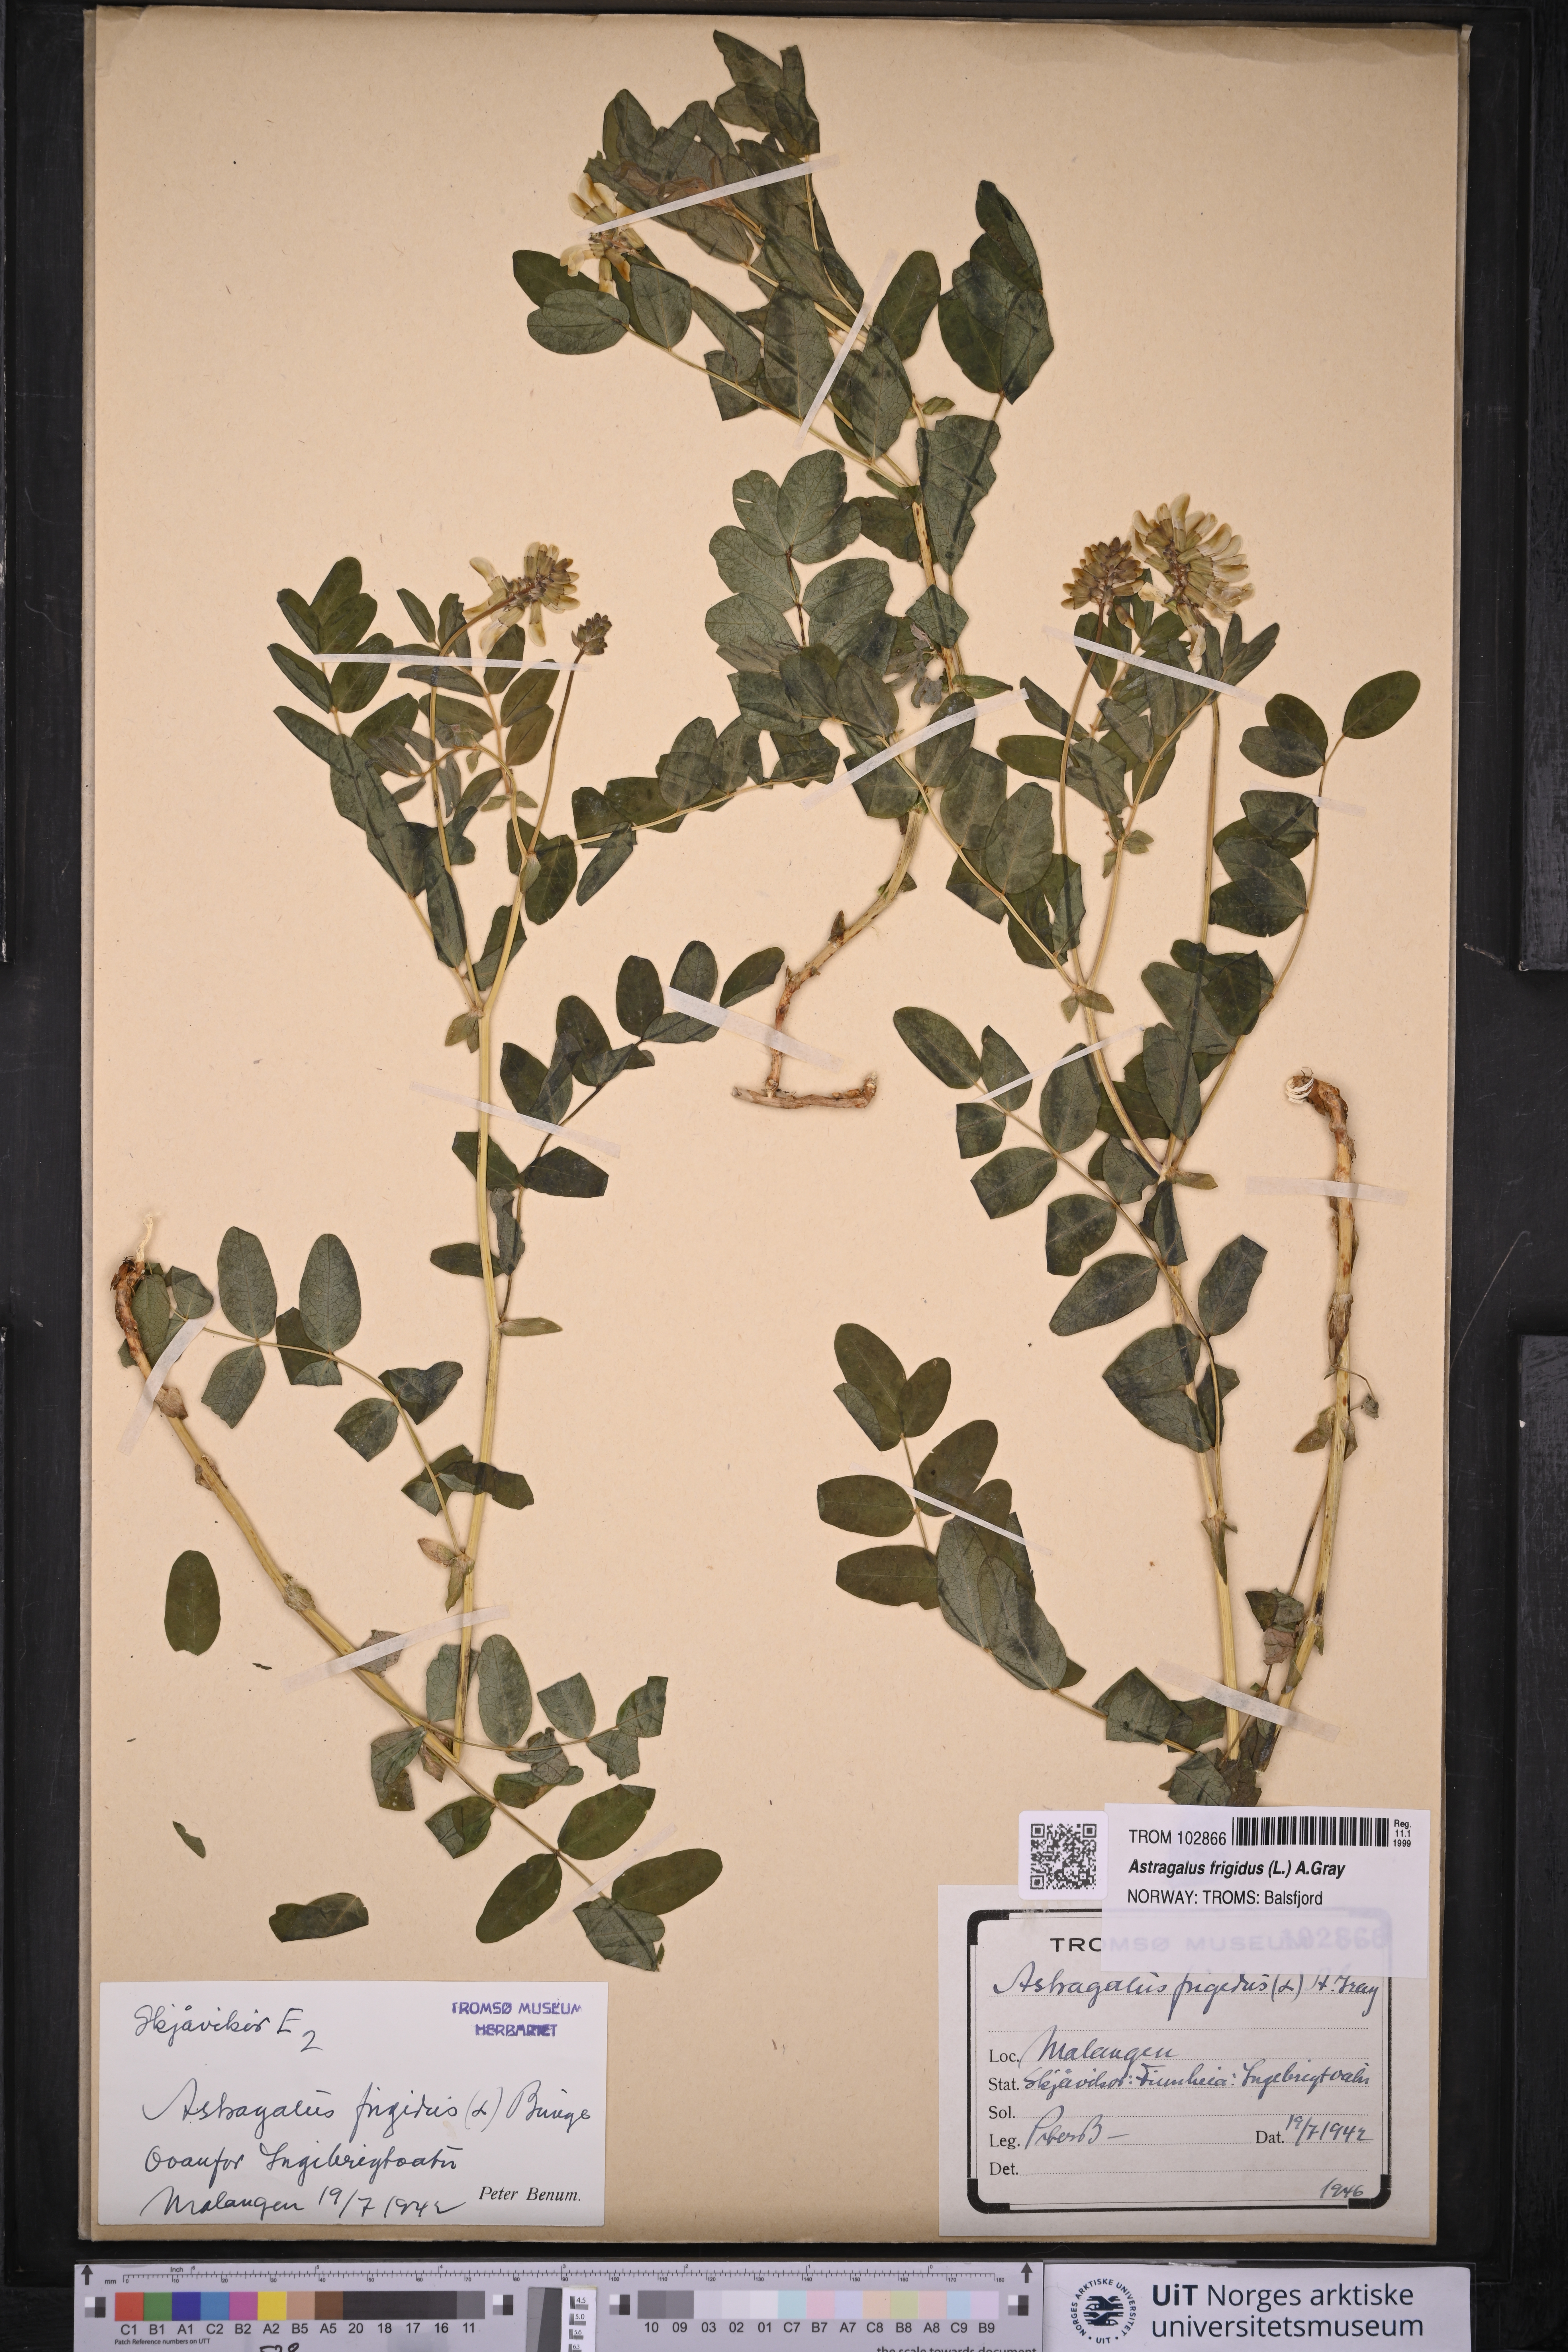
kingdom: Plantae
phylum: Tracheophyta
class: Magnoliopsida
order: Fabales
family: Fabaceae
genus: Astragalus
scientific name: Astragalus frigidus
